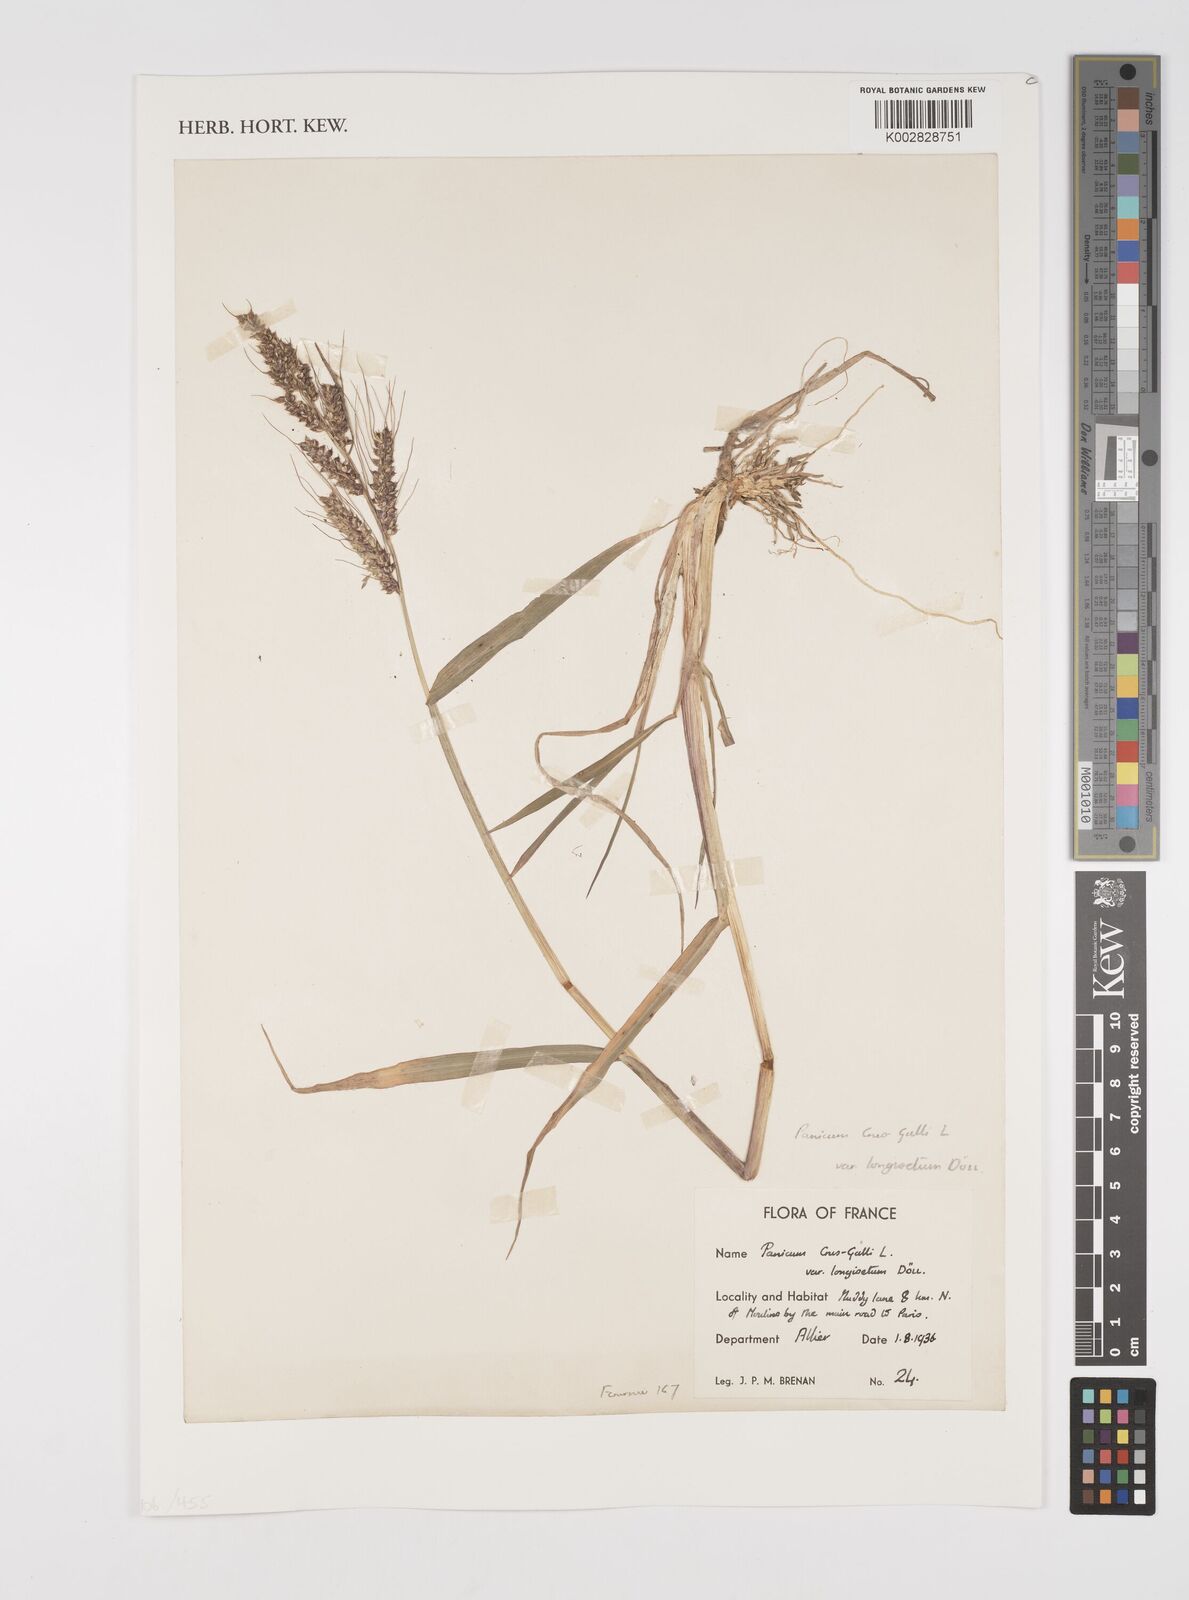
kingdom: Plantae
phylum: Tracheophyta
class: Liliopsida
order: Poales
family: Poaceae
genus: Echinochloa
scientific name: Echinochloa crus-galli
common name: Cockspur
